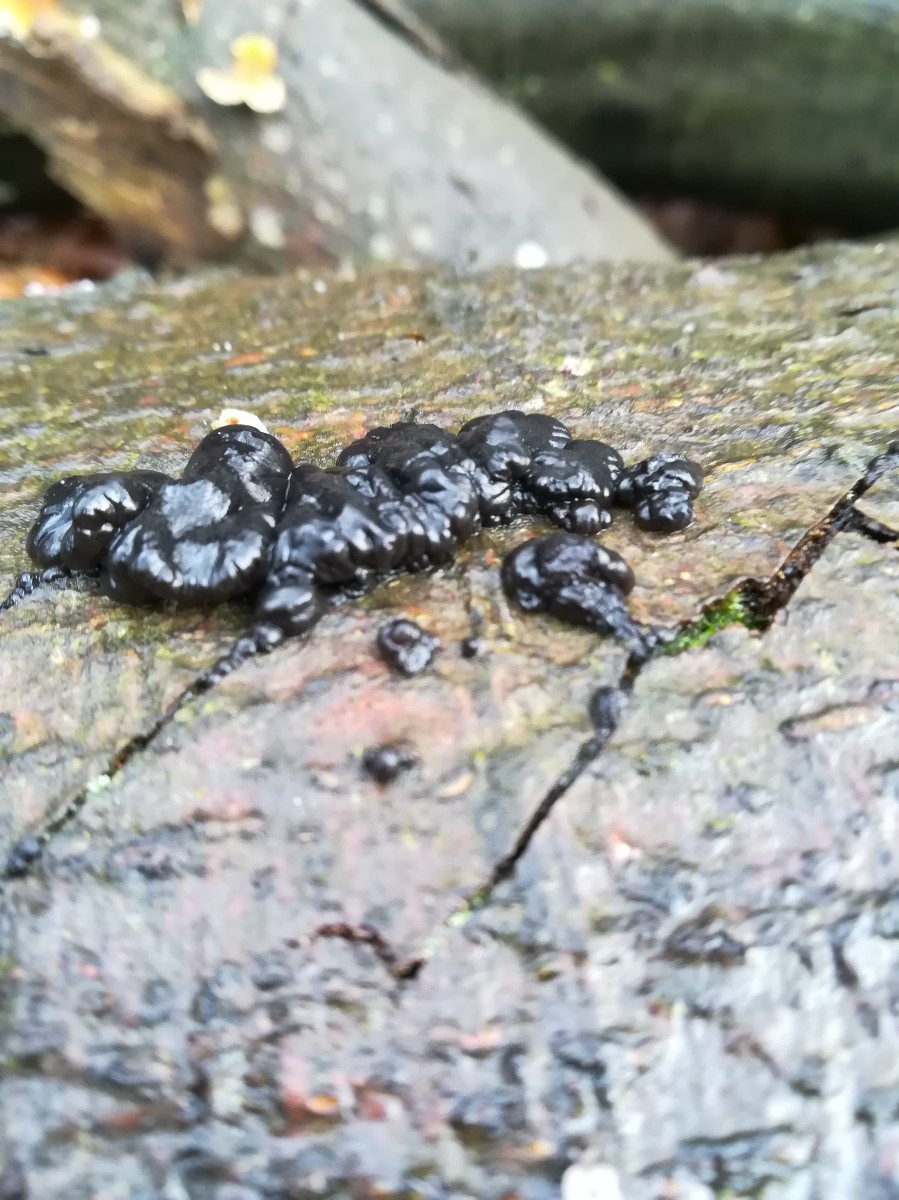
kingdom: Fungi
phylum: Basidiomycota
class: Agaricomycetes
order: Auriculariales
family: Auriculariaceae
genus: Exidia
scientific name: Exidia nigricans
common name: almindelig bævretop
